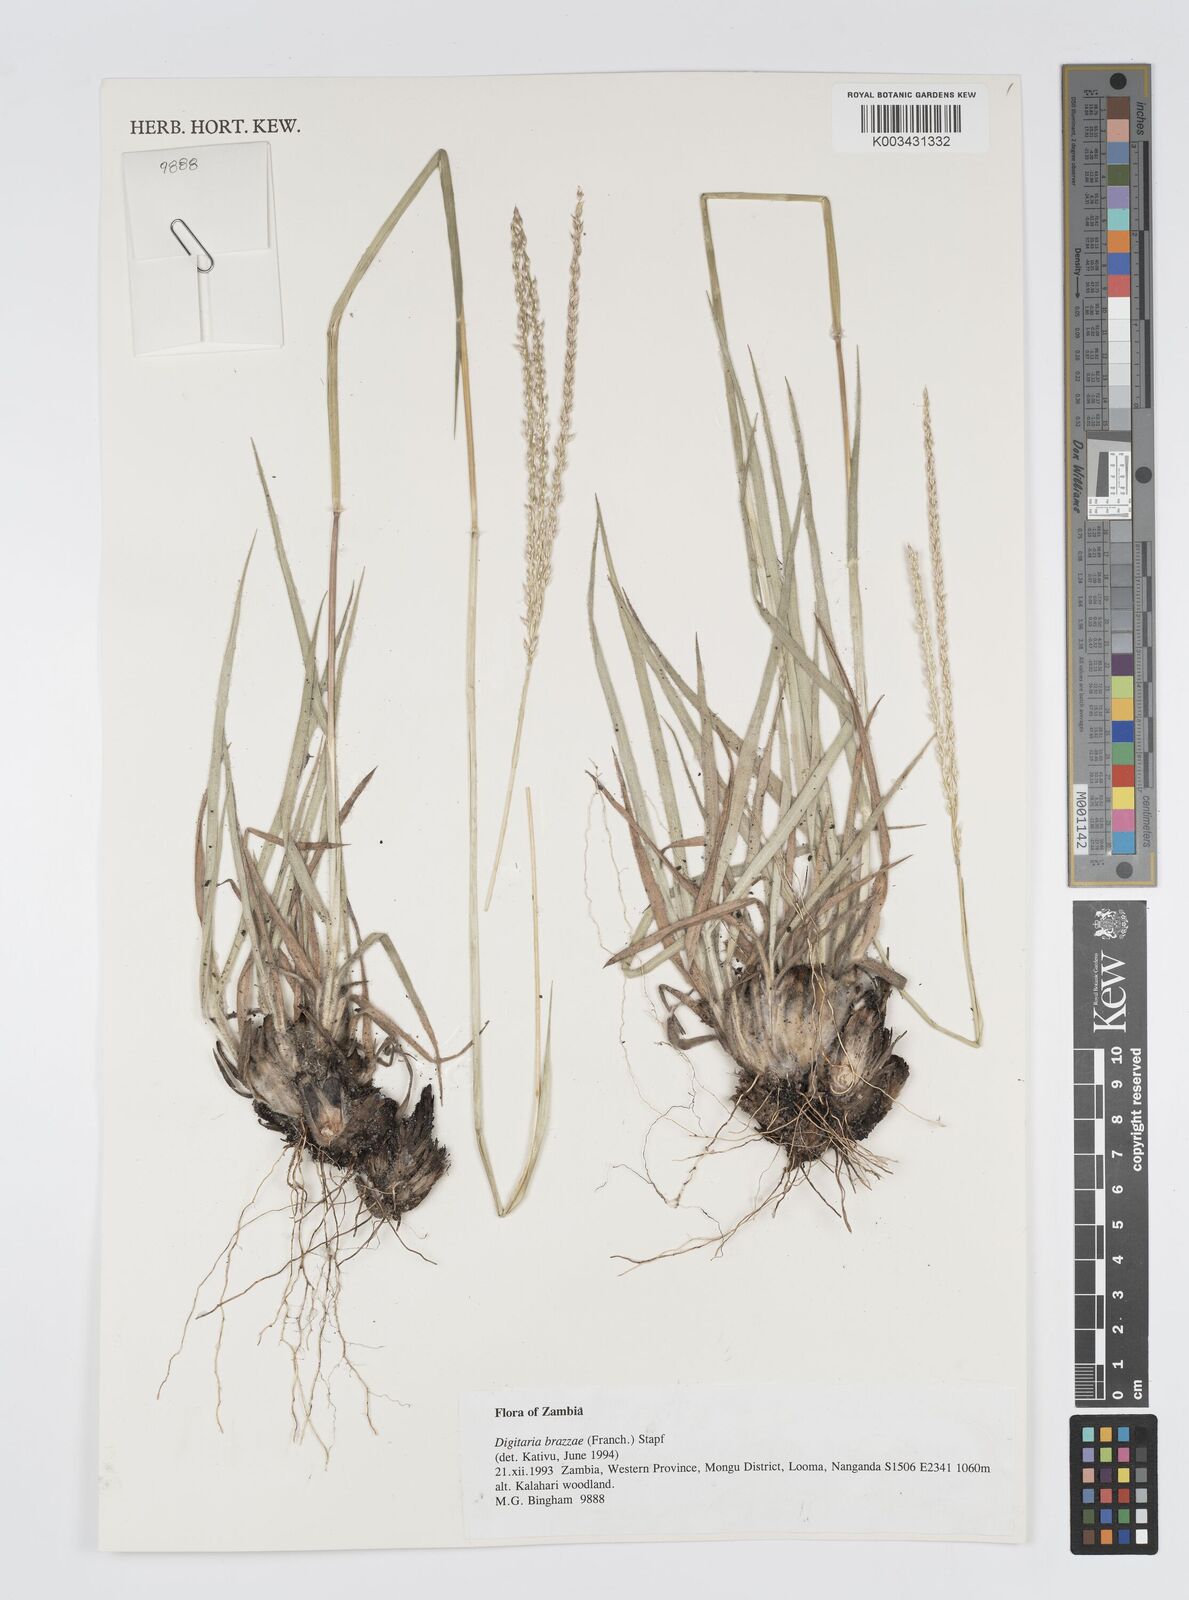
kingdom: Plantae
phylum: Tracheophyta
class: Liliopsida
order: Poales
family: Poaceae
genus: Digitaria
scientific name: Digitaria brazzae
